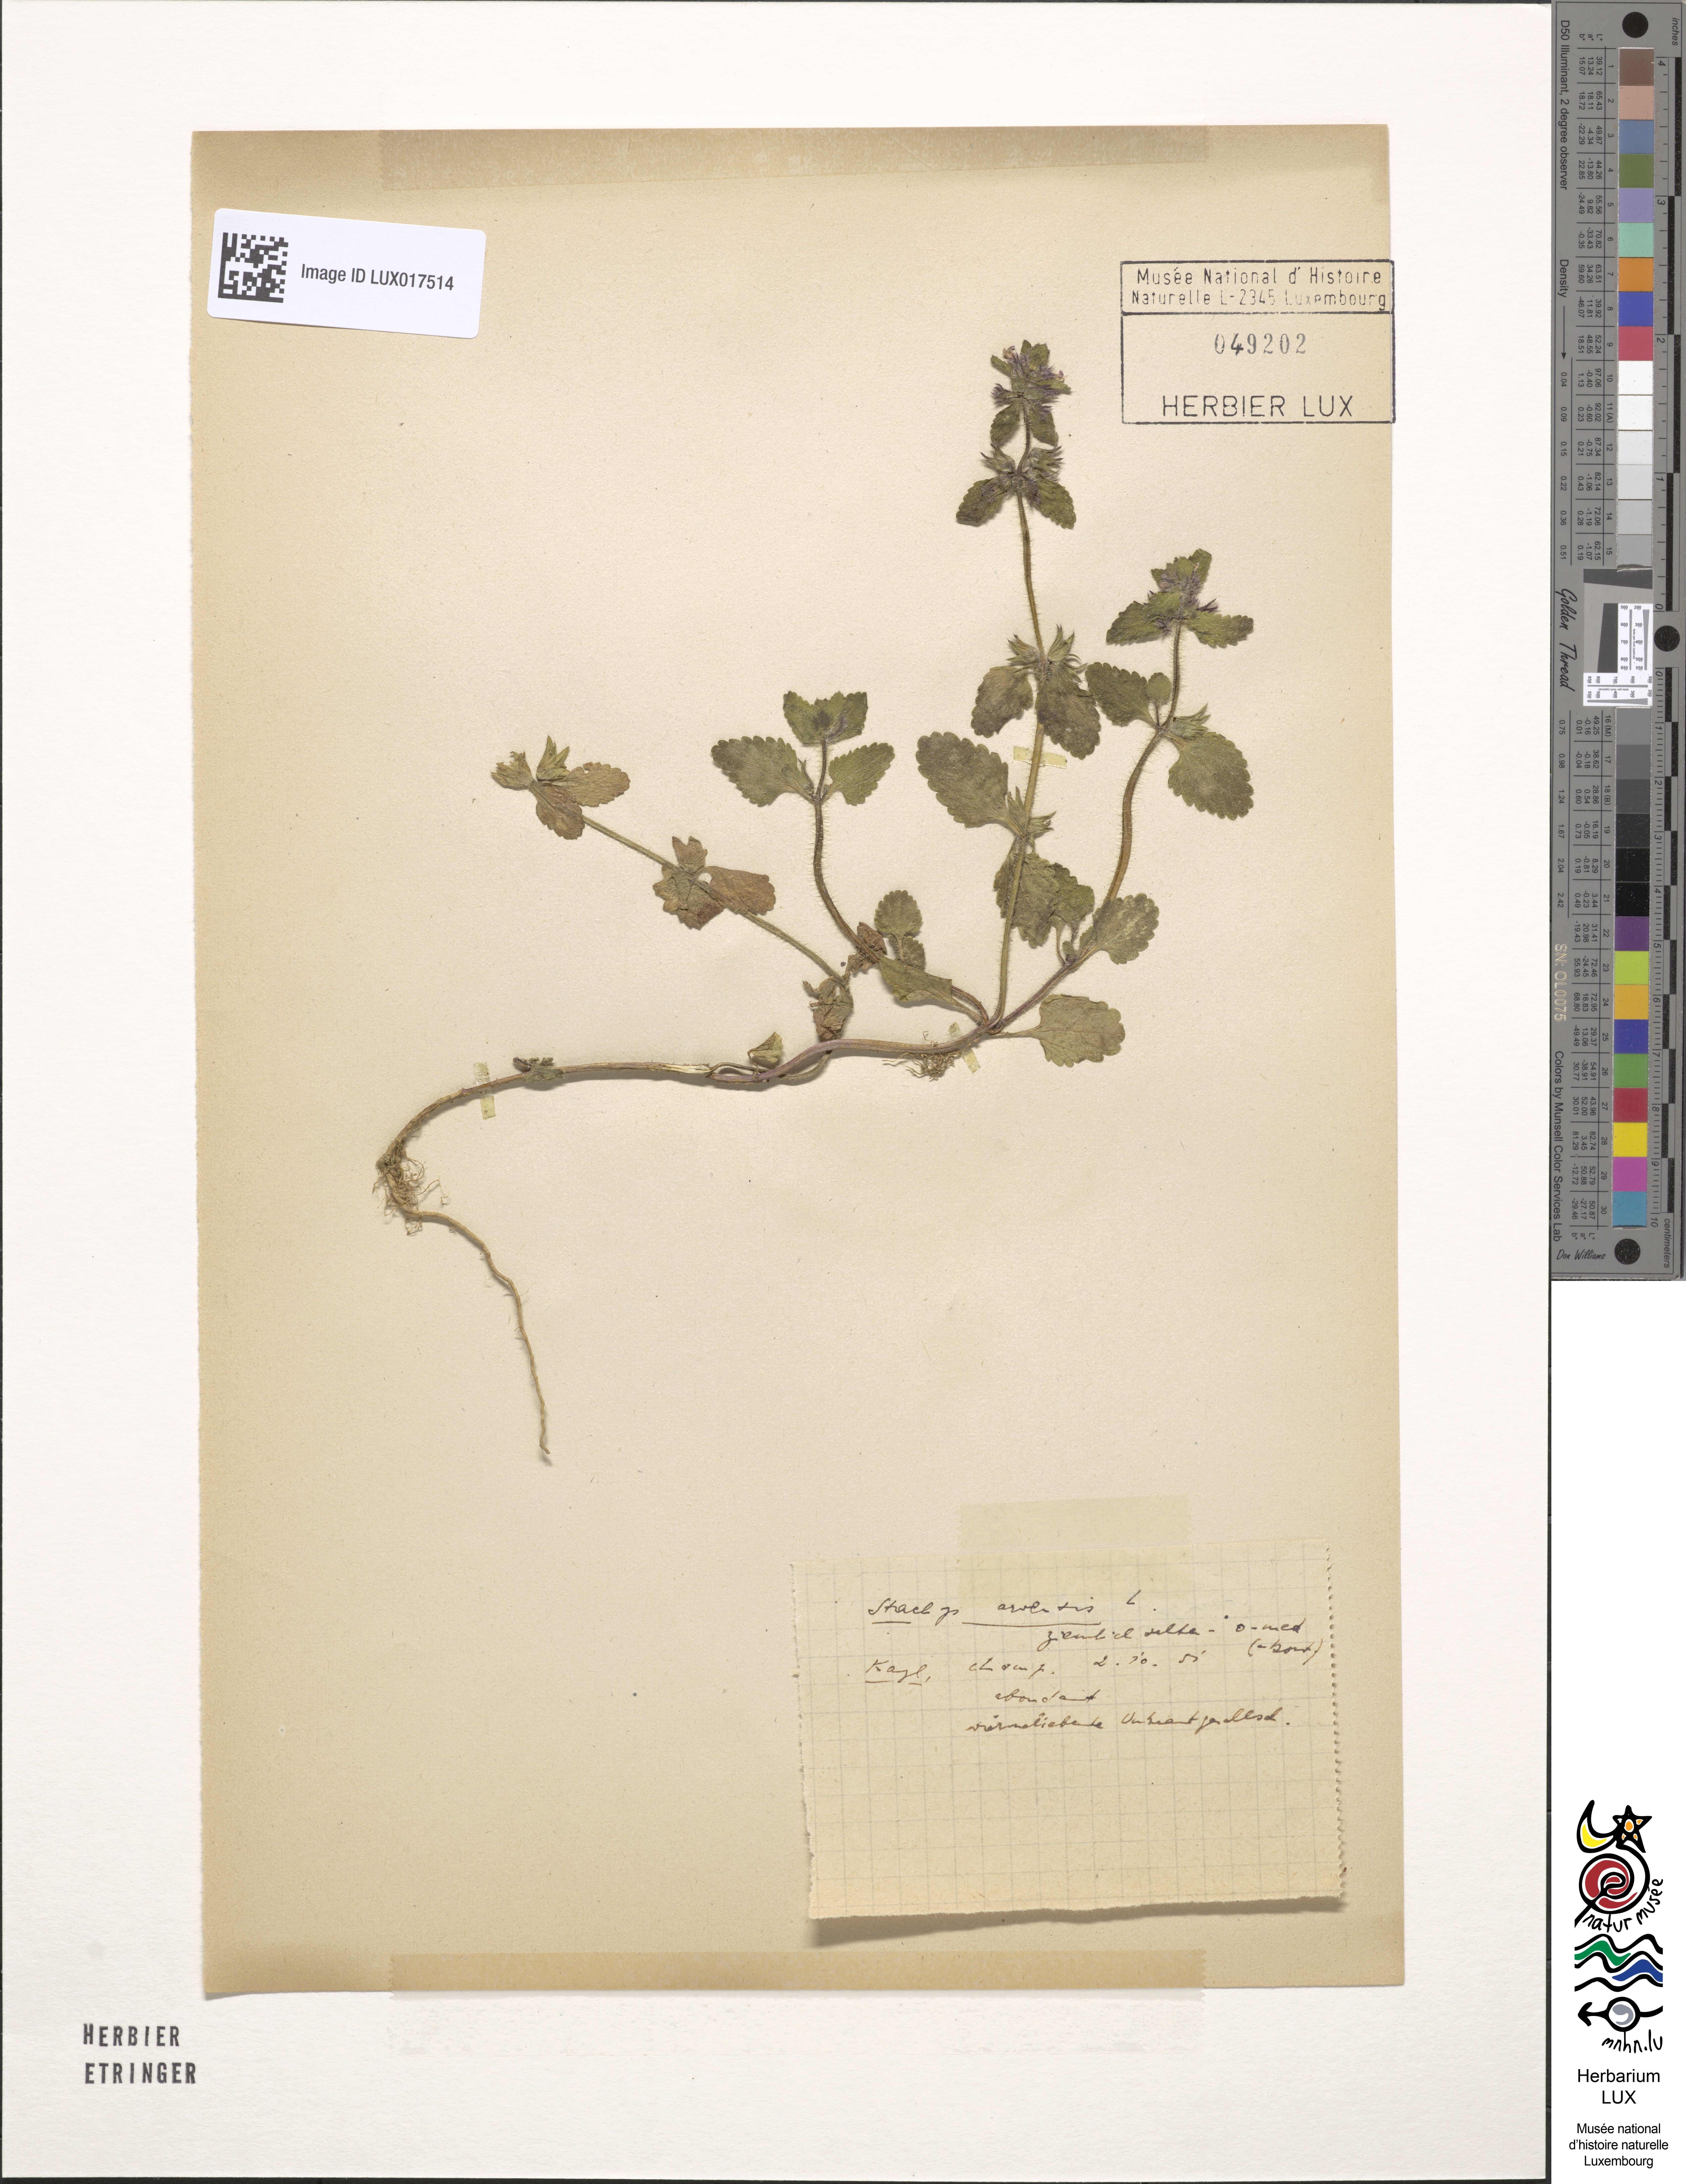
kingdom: Plantae
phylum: Tracheophyta
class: Magnoliopsida
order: Lamiales
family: Lamiaceae
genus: Stachys
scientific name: Stachys arvensis
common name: Field woundwort
